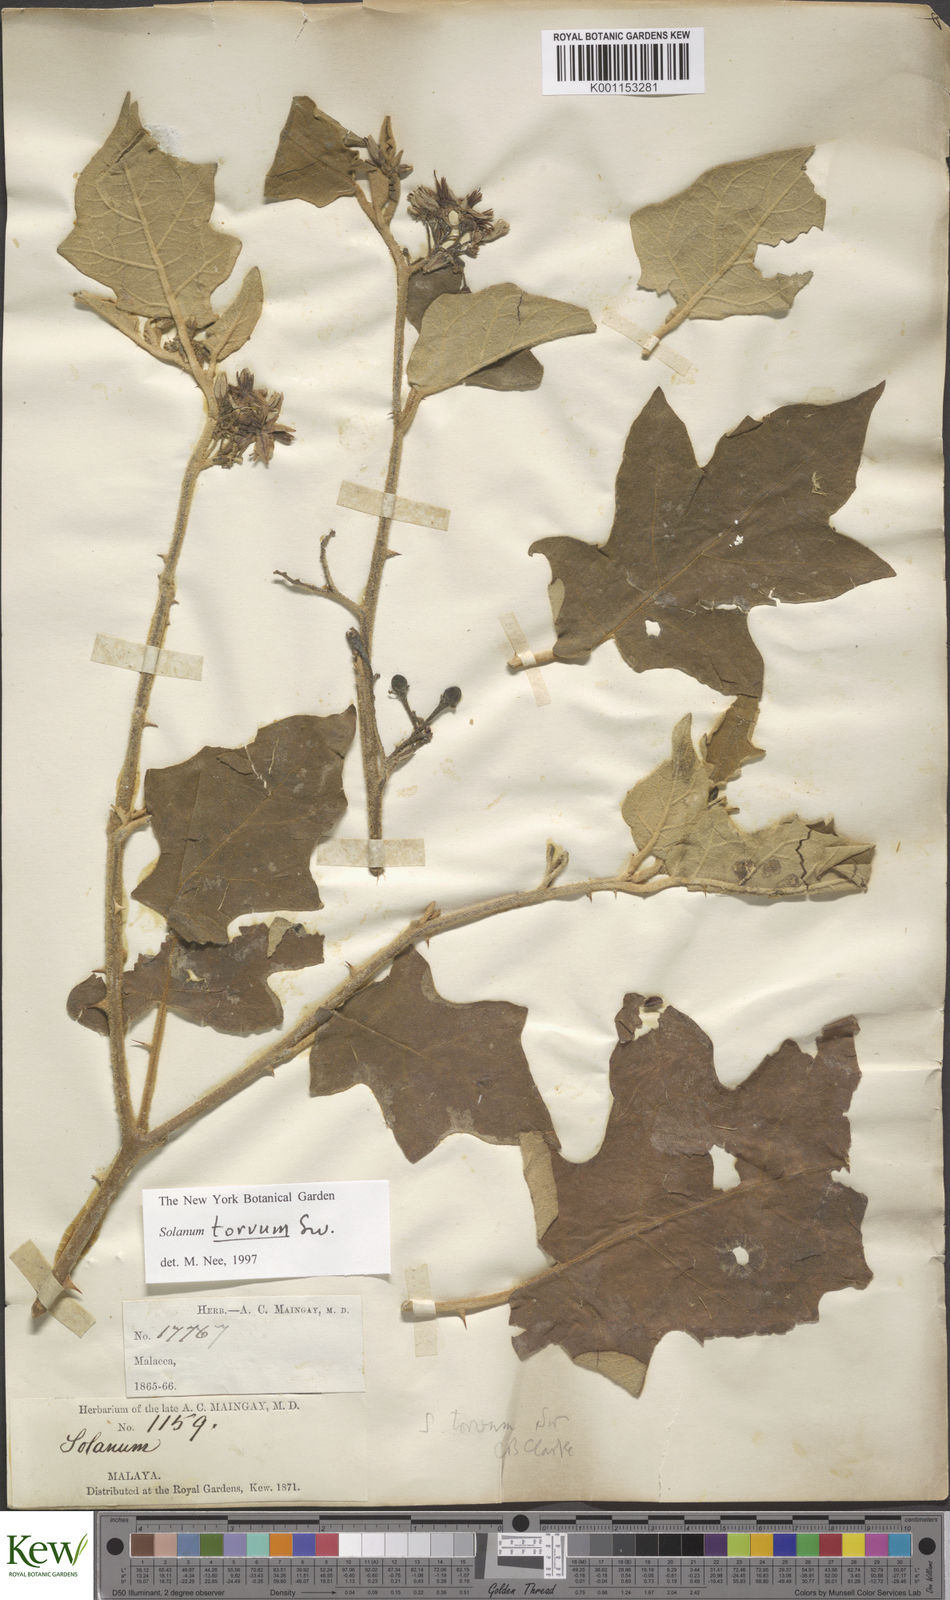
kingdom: Plantae
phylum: Tracheophyta
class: Magnoliopsida
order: Solanales
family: Solanaceae
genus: Solanum
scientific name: Solanum torvum
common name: Turkey berry
